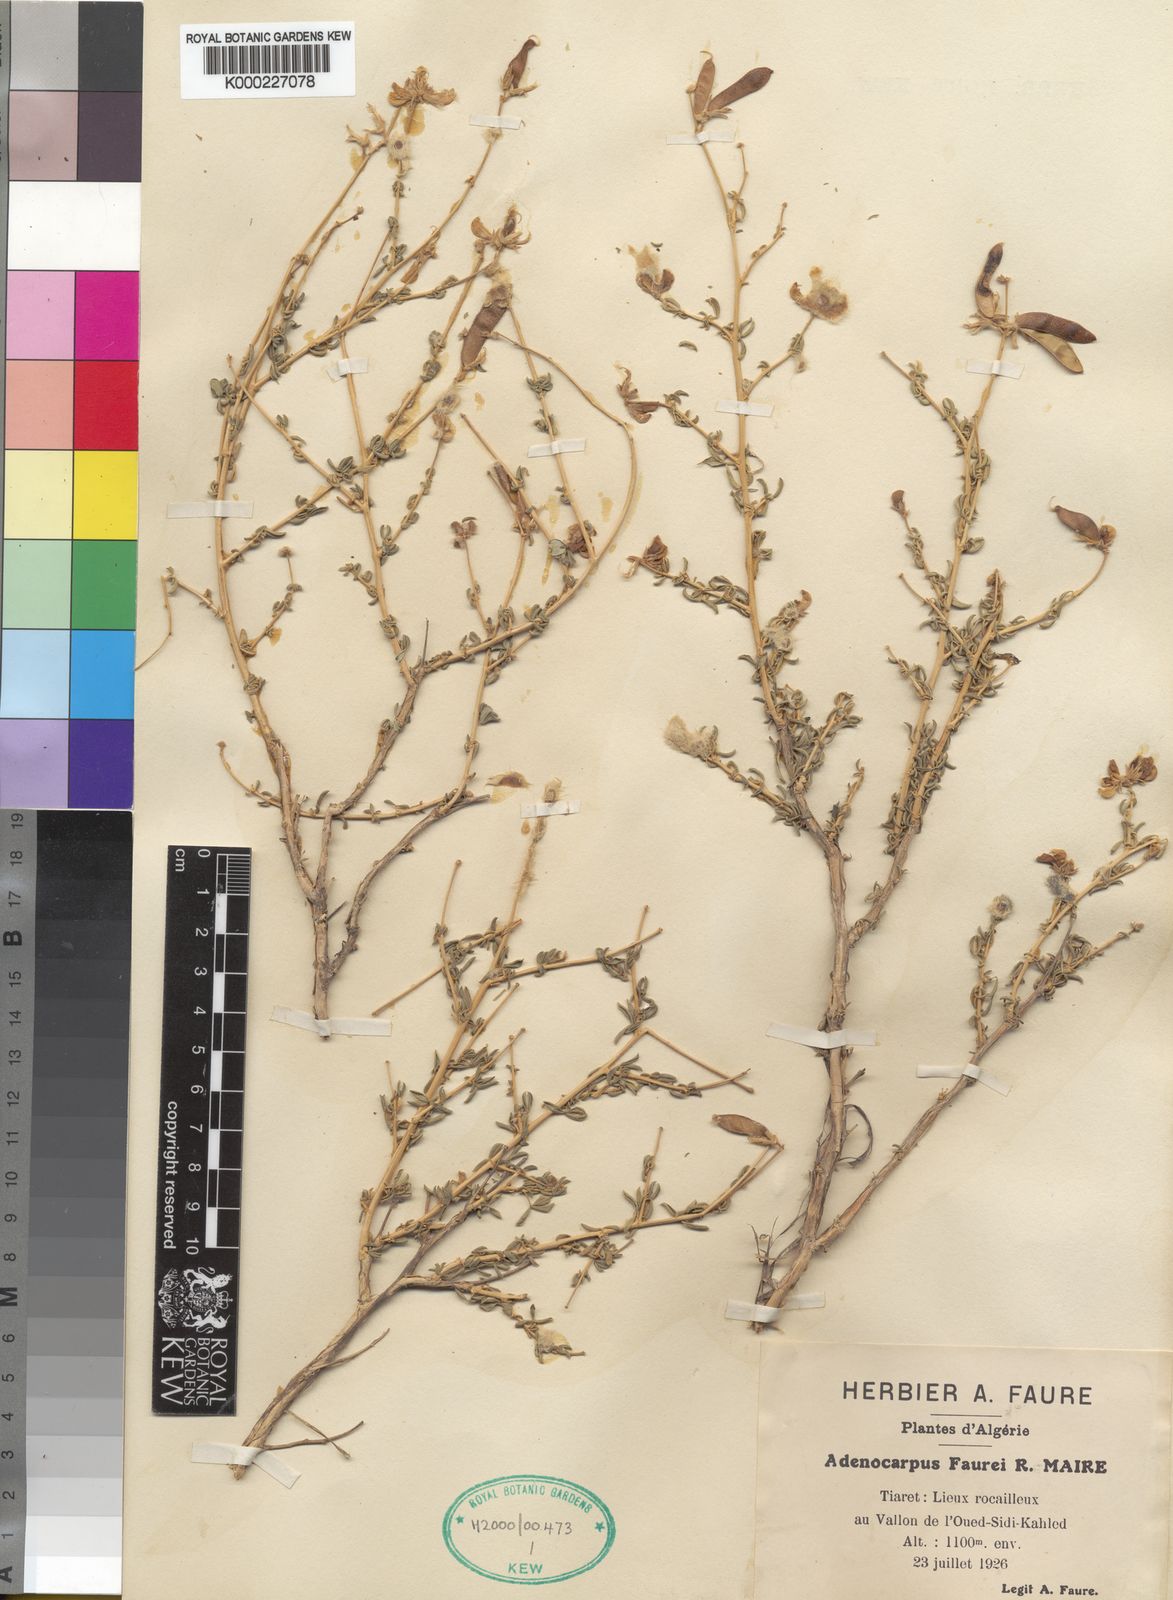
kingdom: Plantae
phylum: Tracheophyta
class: Magnoliopsida
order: Fabales
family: Fabaceae
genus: Adenocarpus
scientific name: Adenocarpus faurei
